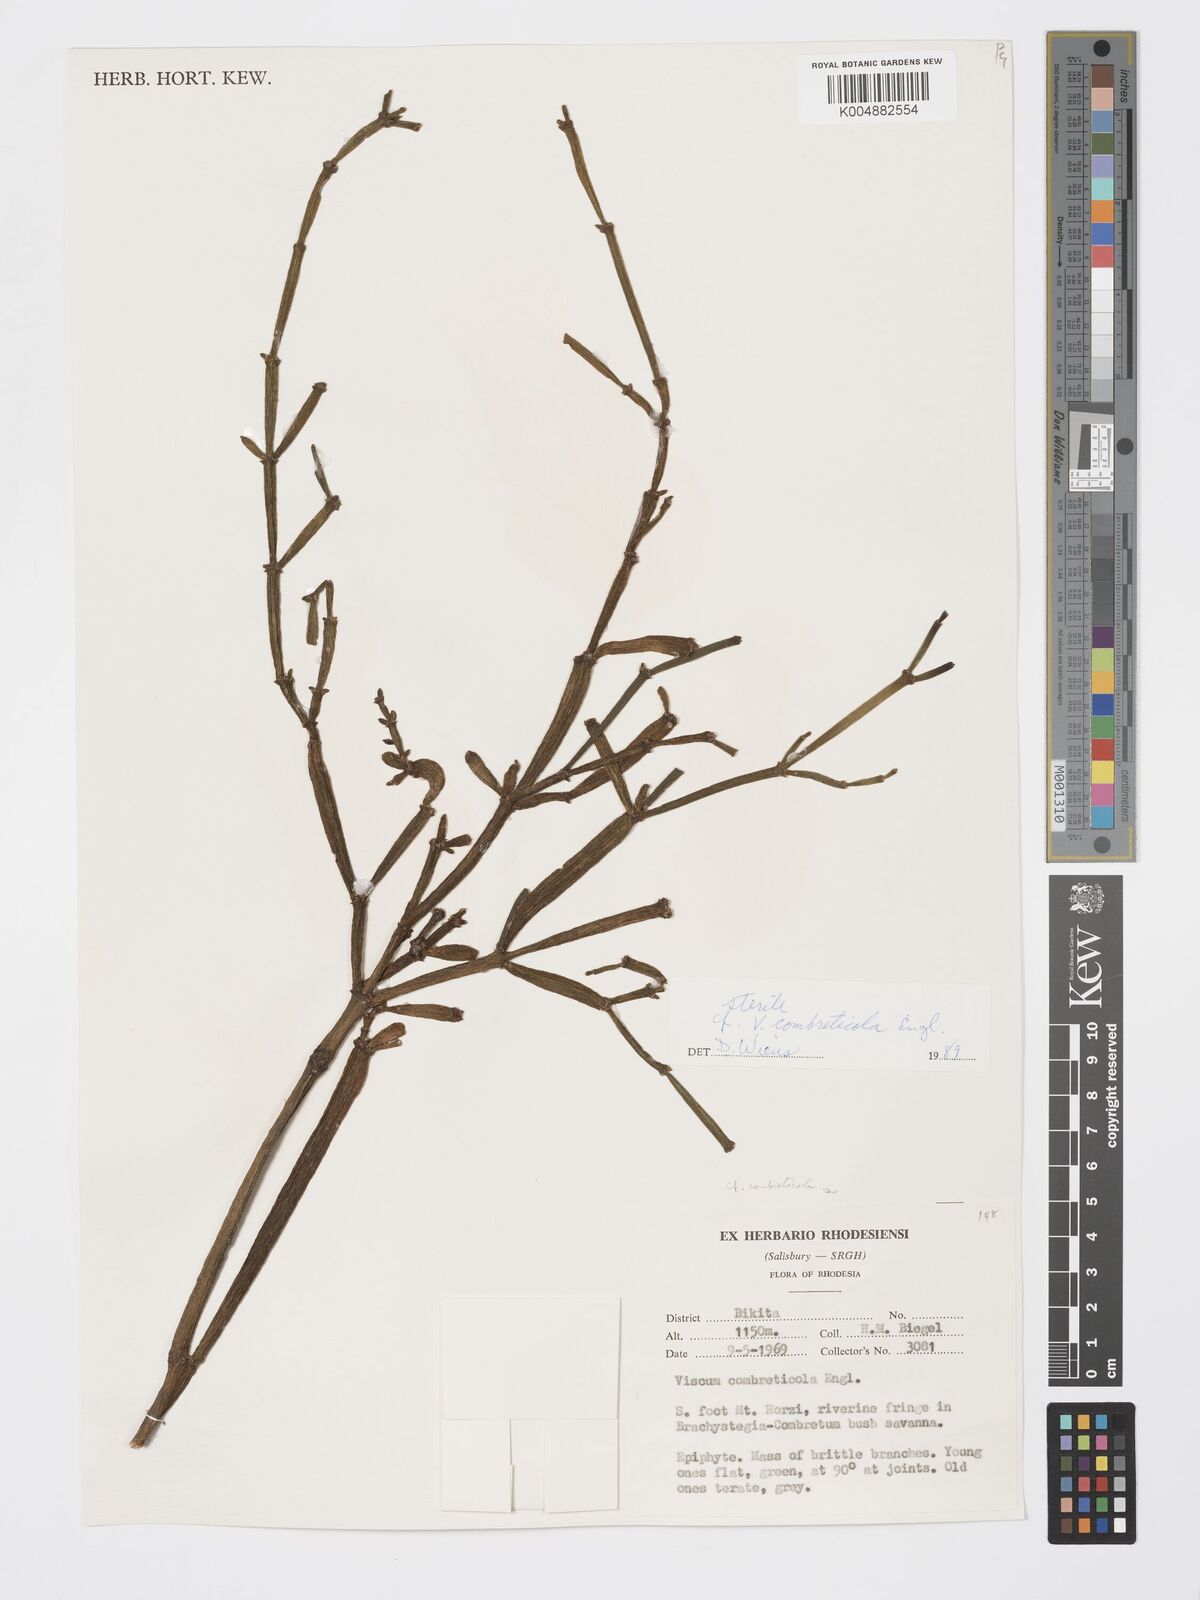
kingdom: Plantae
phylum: Tracheophyta
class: Magnoliopsida
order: Santalales
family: Viscaceae
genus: Viscum
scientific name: Viscum combreticola
